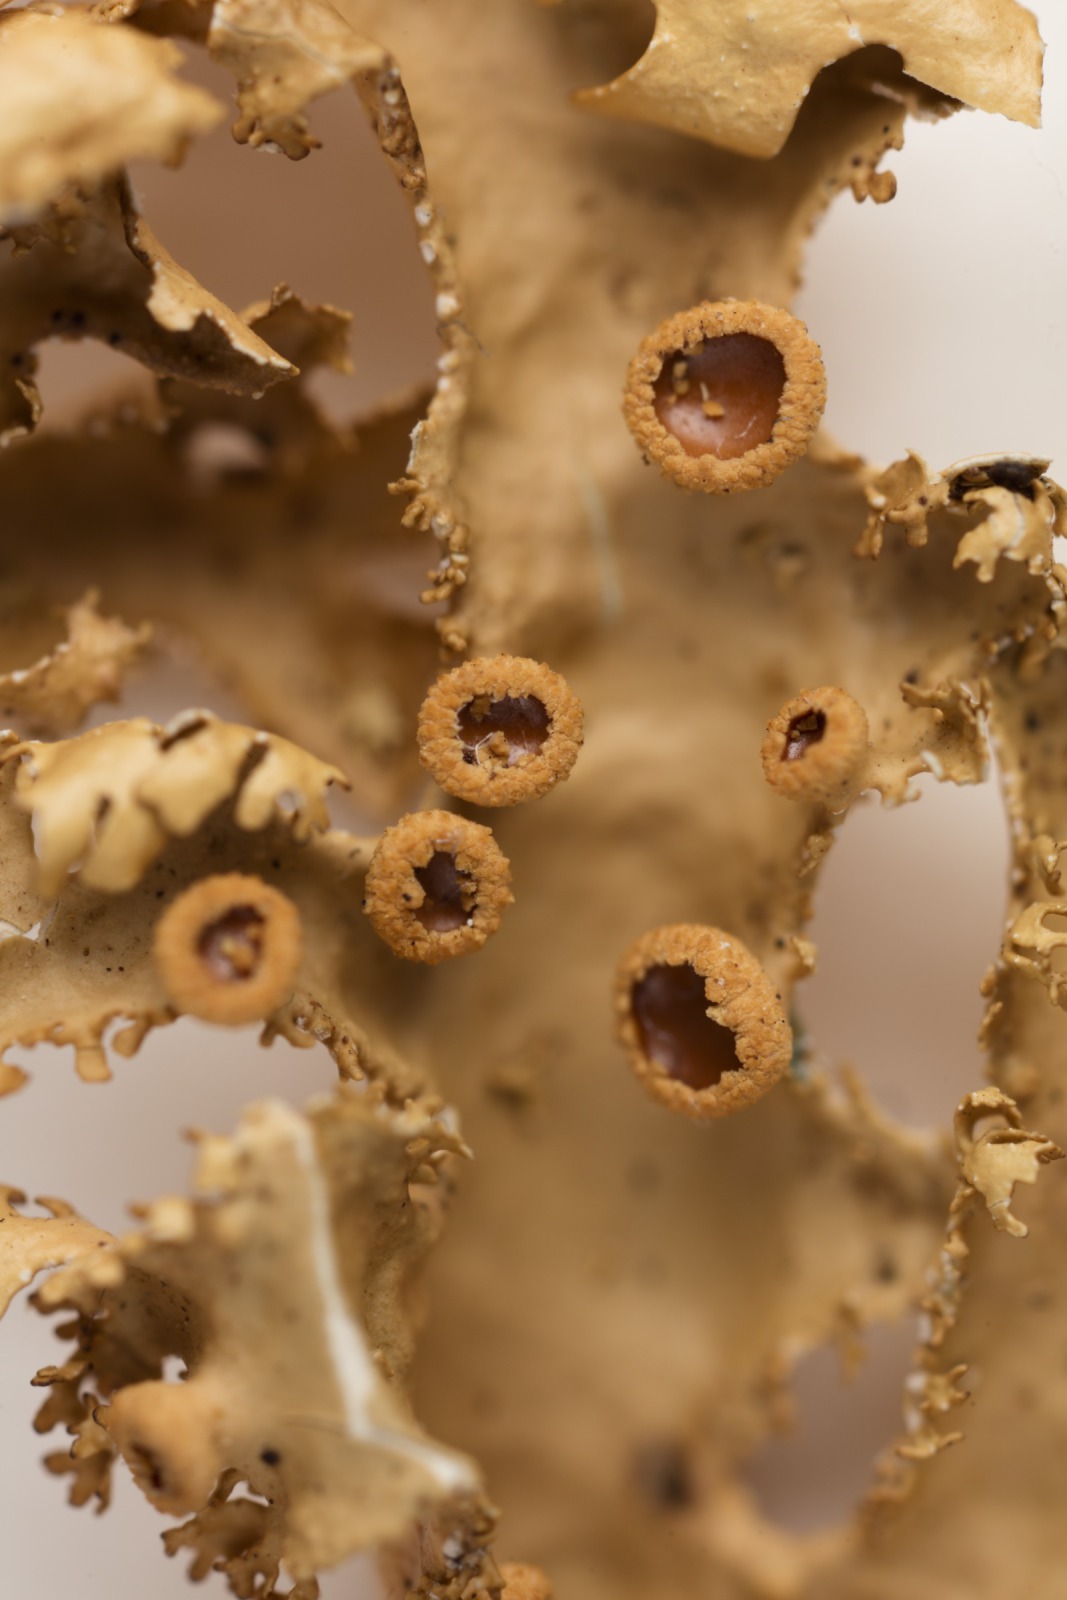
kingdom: Fungi
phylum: Ascomycota
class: Lecanoromycetes
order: Peltigerales
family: Lobariaceae
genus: Pseudocyphellaria
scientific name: Pseudocyphellaria chloroleuca
